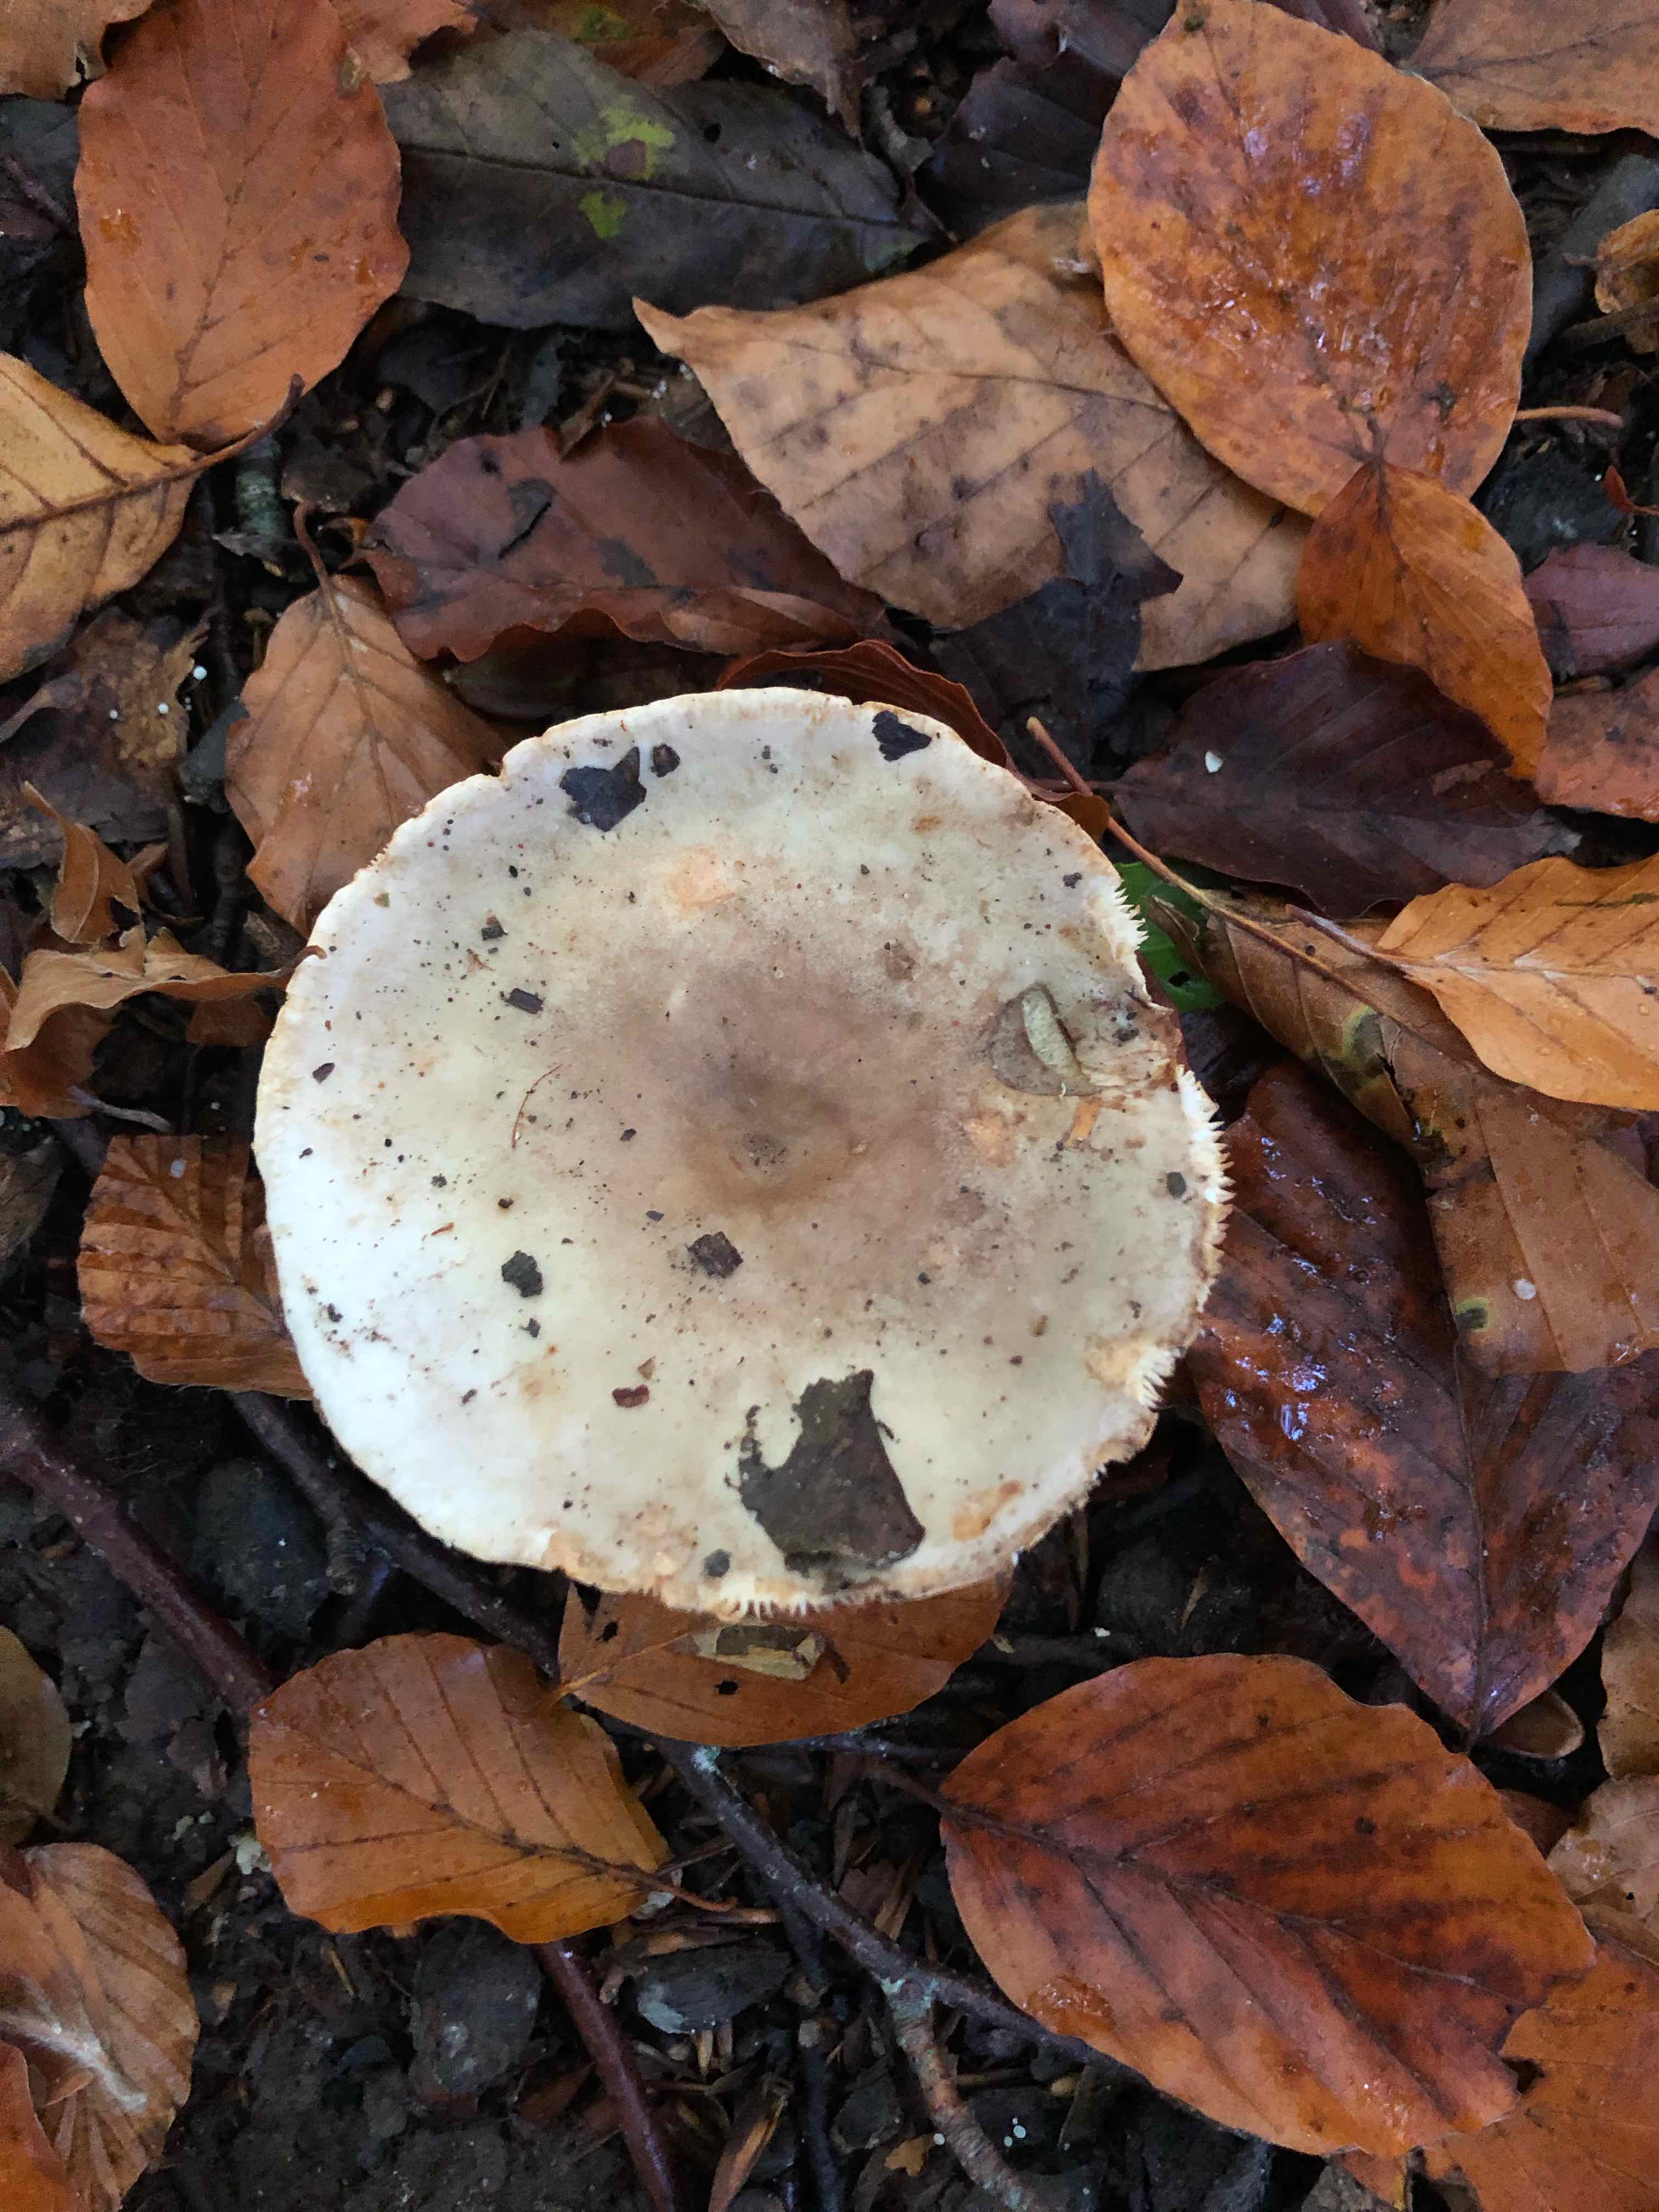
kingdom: Fungi
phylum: Basidiomycota
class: Agaricomycetes
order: Russulales
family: Russulaceae
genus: Lactarius
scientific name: Lactarius
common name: mælkehat
